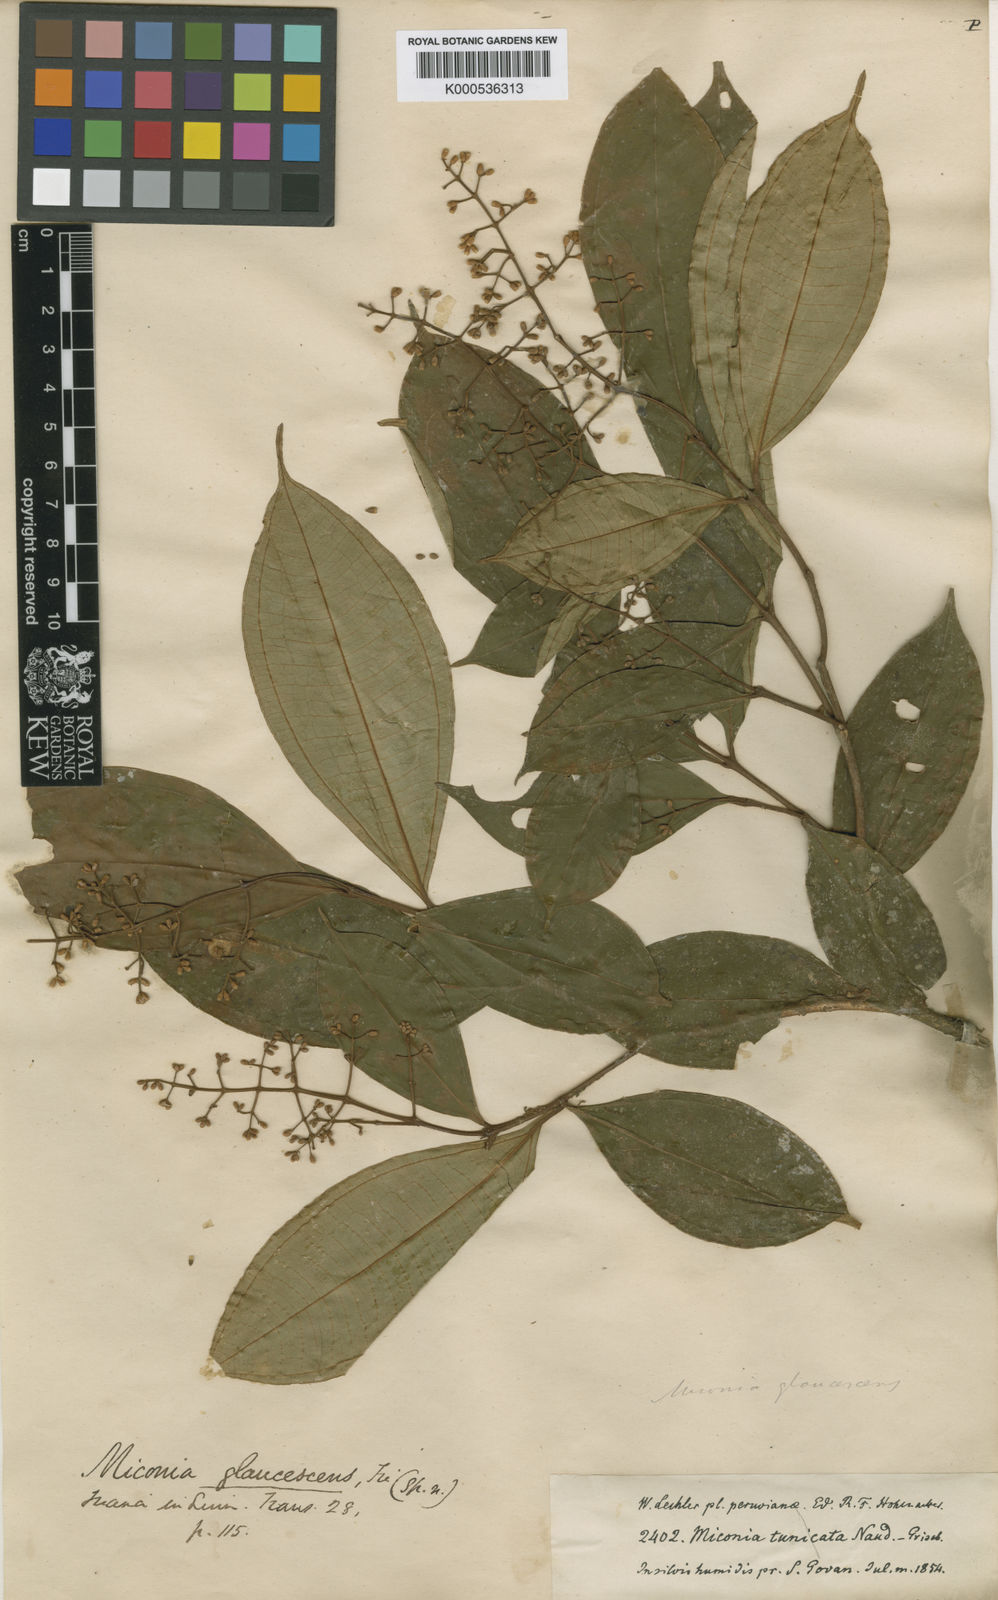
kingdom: Plantae
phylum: Tracheophyta
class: Magnoliopsida
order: Myrtales
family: Melastomataceae
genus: Miconia
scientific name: Miconia glaucescens
